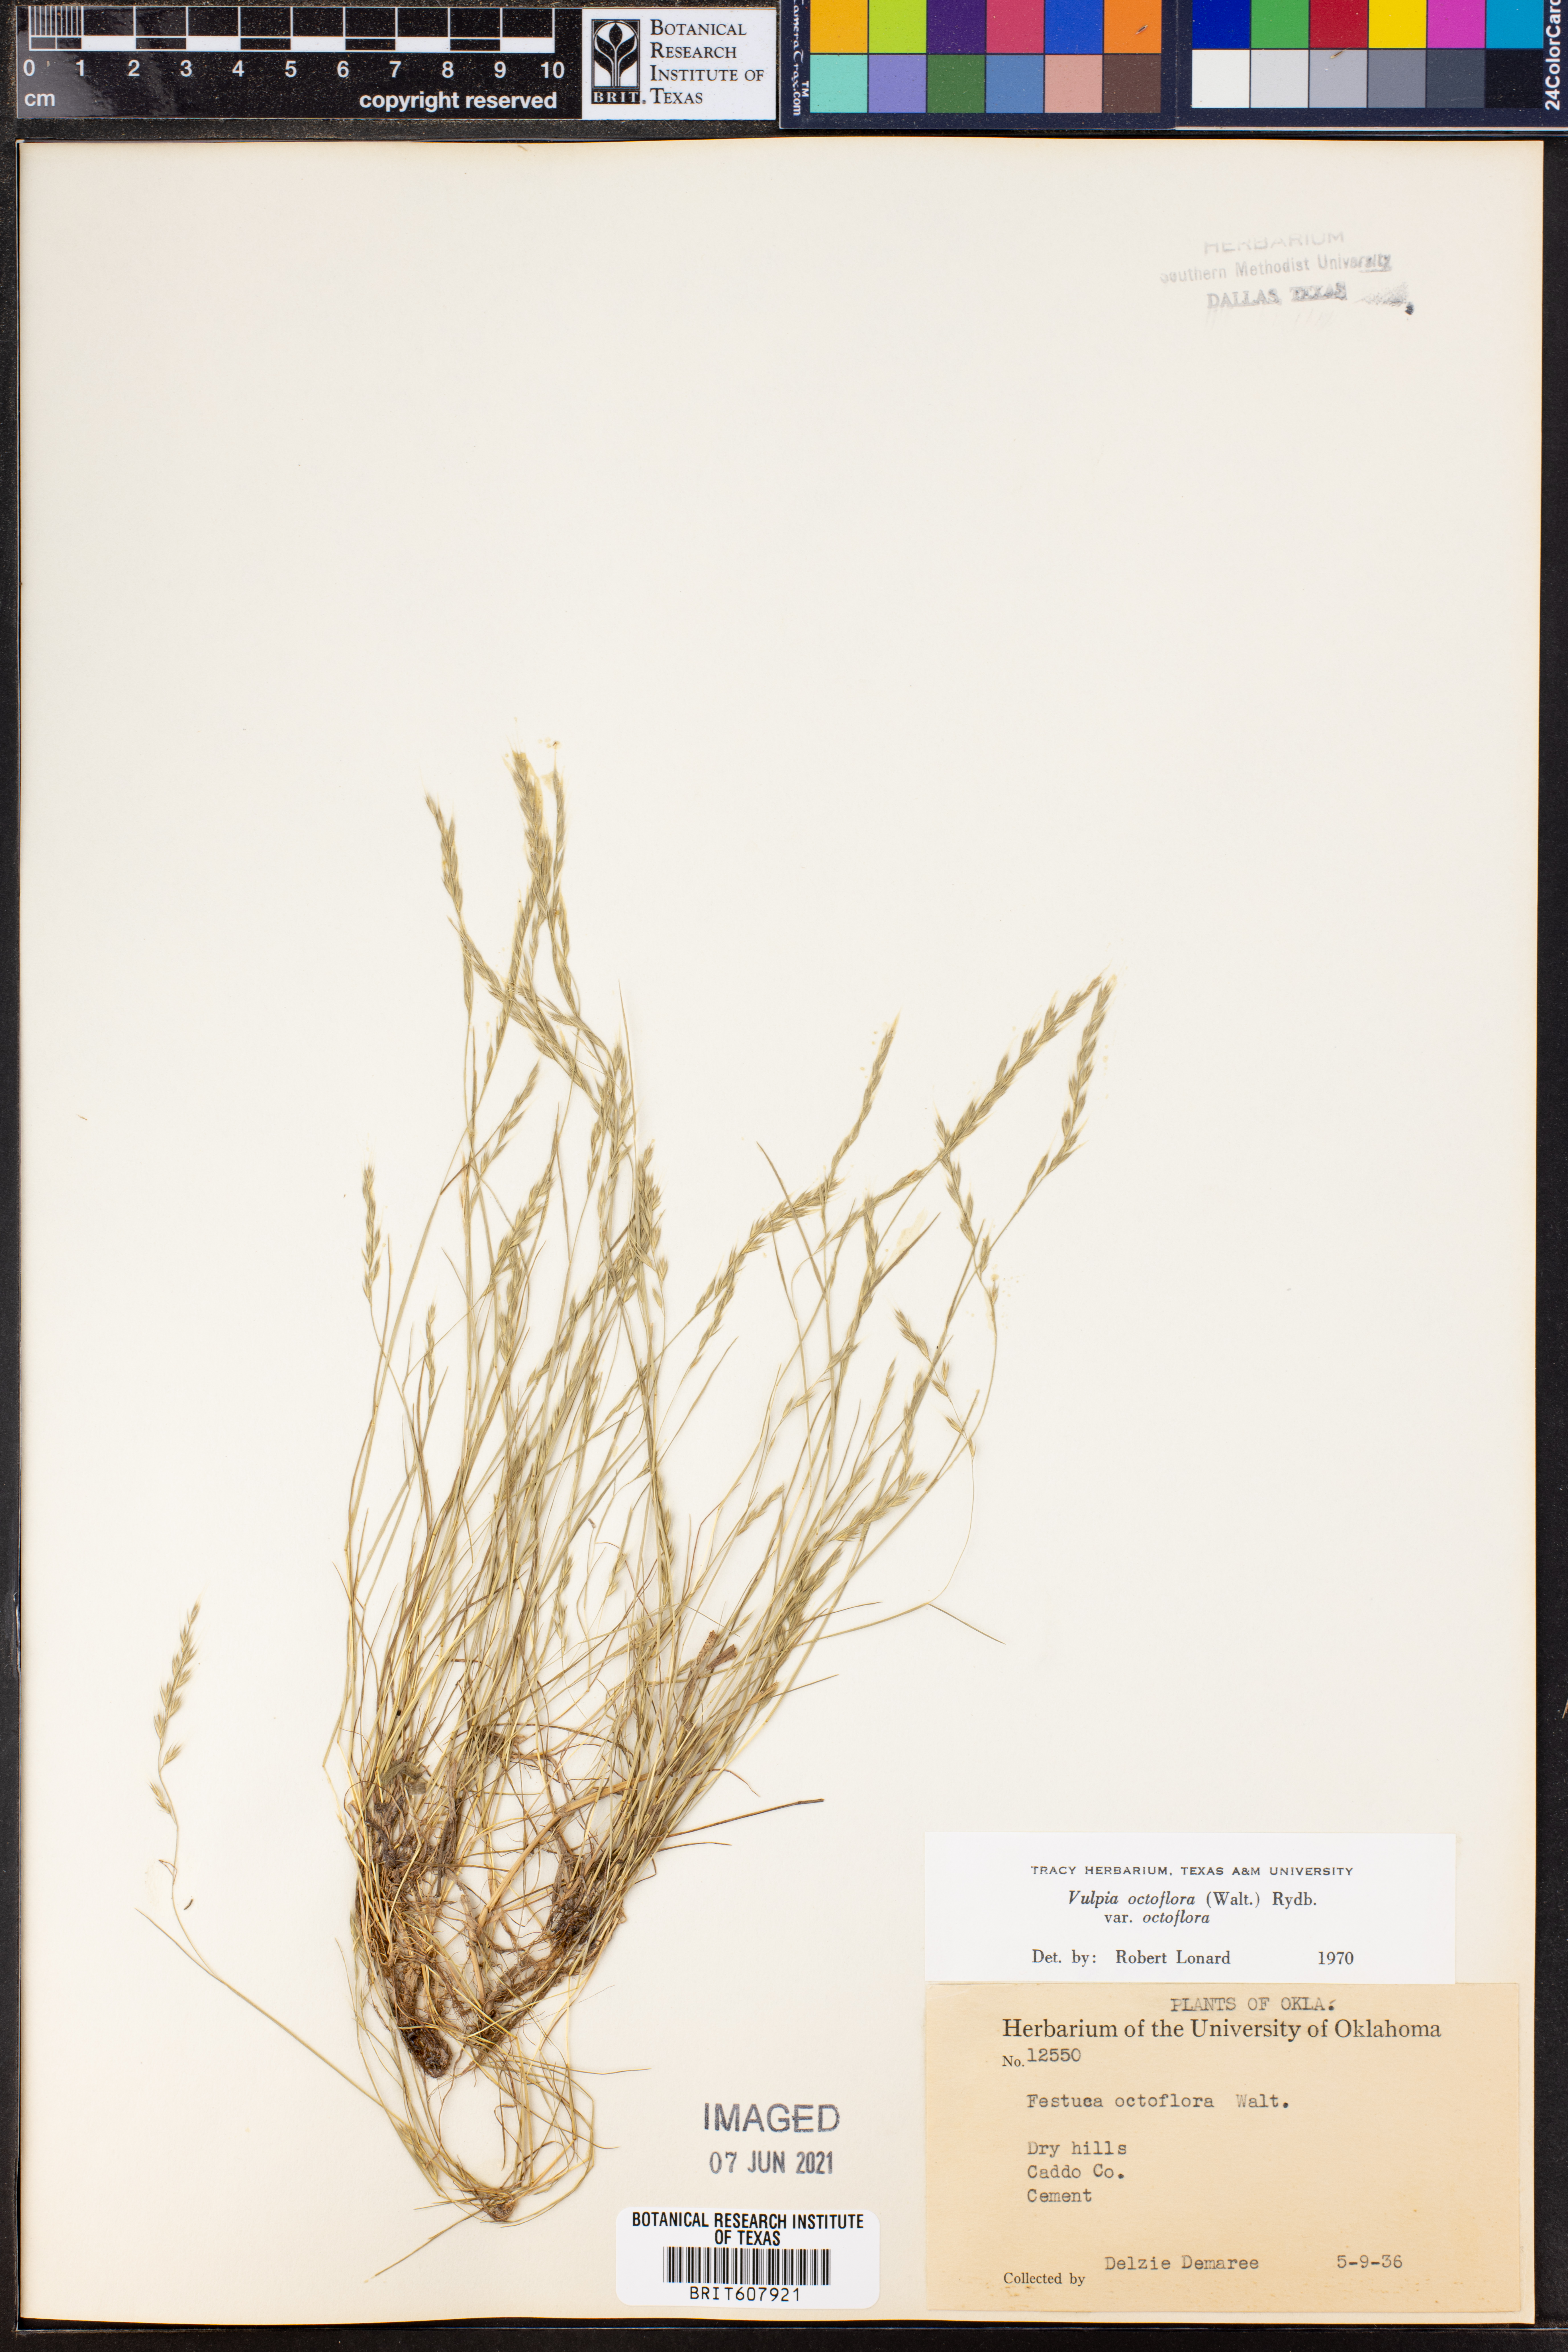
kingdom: Plantae
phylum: Tracheophyta
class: Liliopsida
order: Poales
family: Poaceae
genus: Festuca
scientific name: Festuca octoflora
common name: Sixweeks grass
